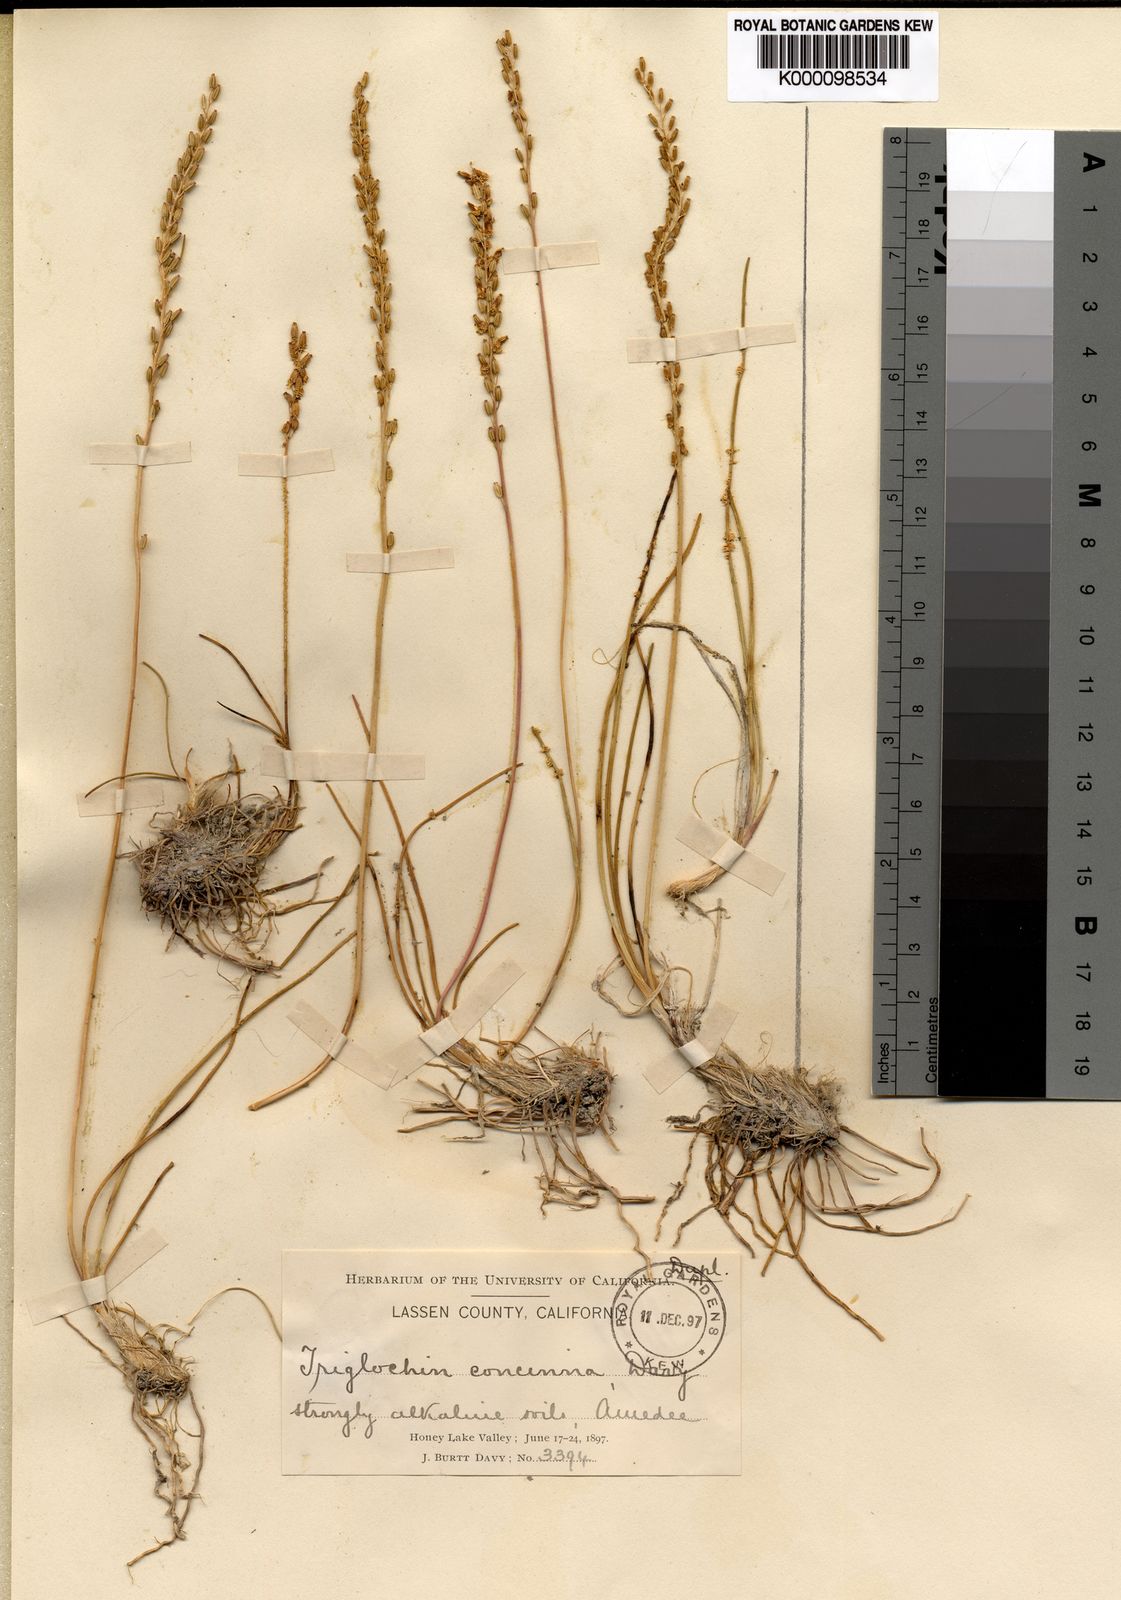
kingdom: Plantae
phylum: Tracheophyta
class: Liliopsida
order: Alismatales
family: Juncaginaceae
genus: Triglochin
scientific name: Triglochin maritima
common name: Sea arrowgrass
